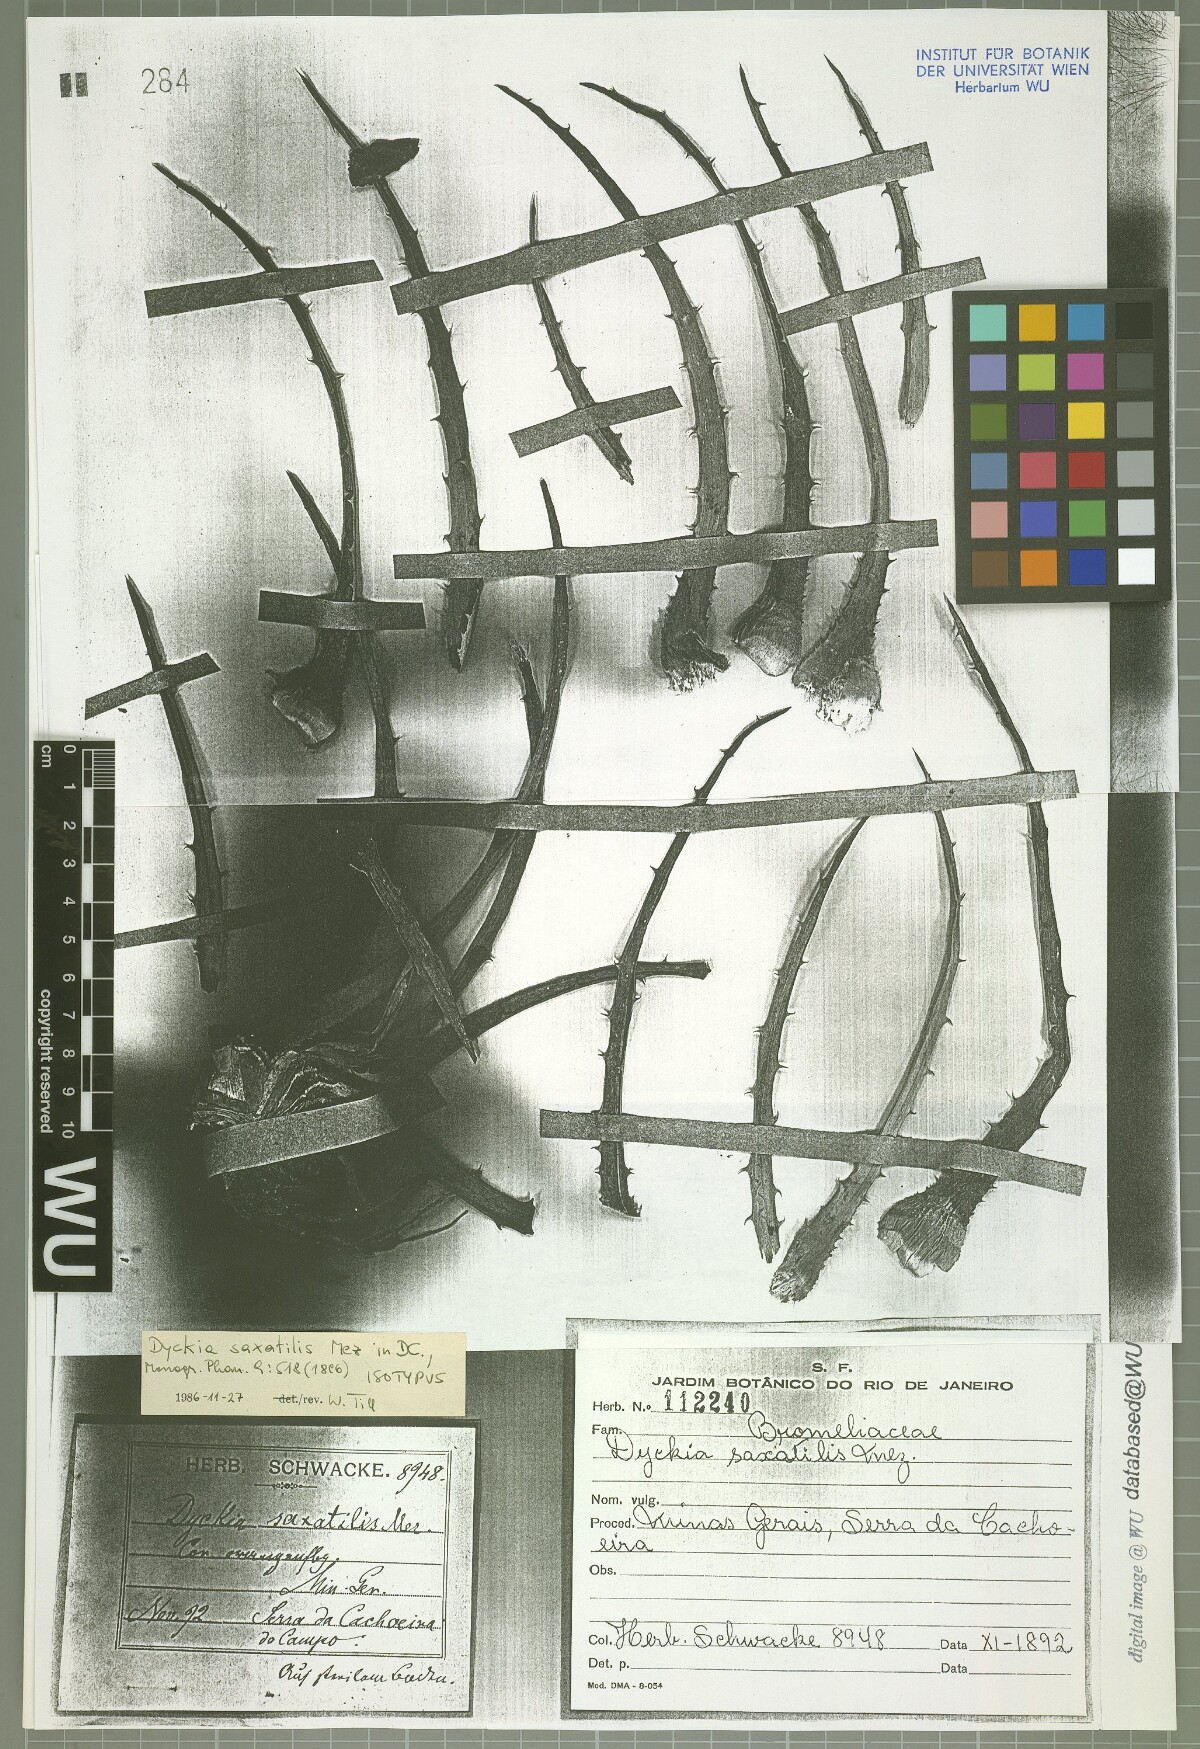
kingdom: Plantae
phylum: Tracheophyta
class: Liliopsida
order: Poales
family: Bromeliaceae
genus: Dyckia
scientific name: Dyckia saxatilis
